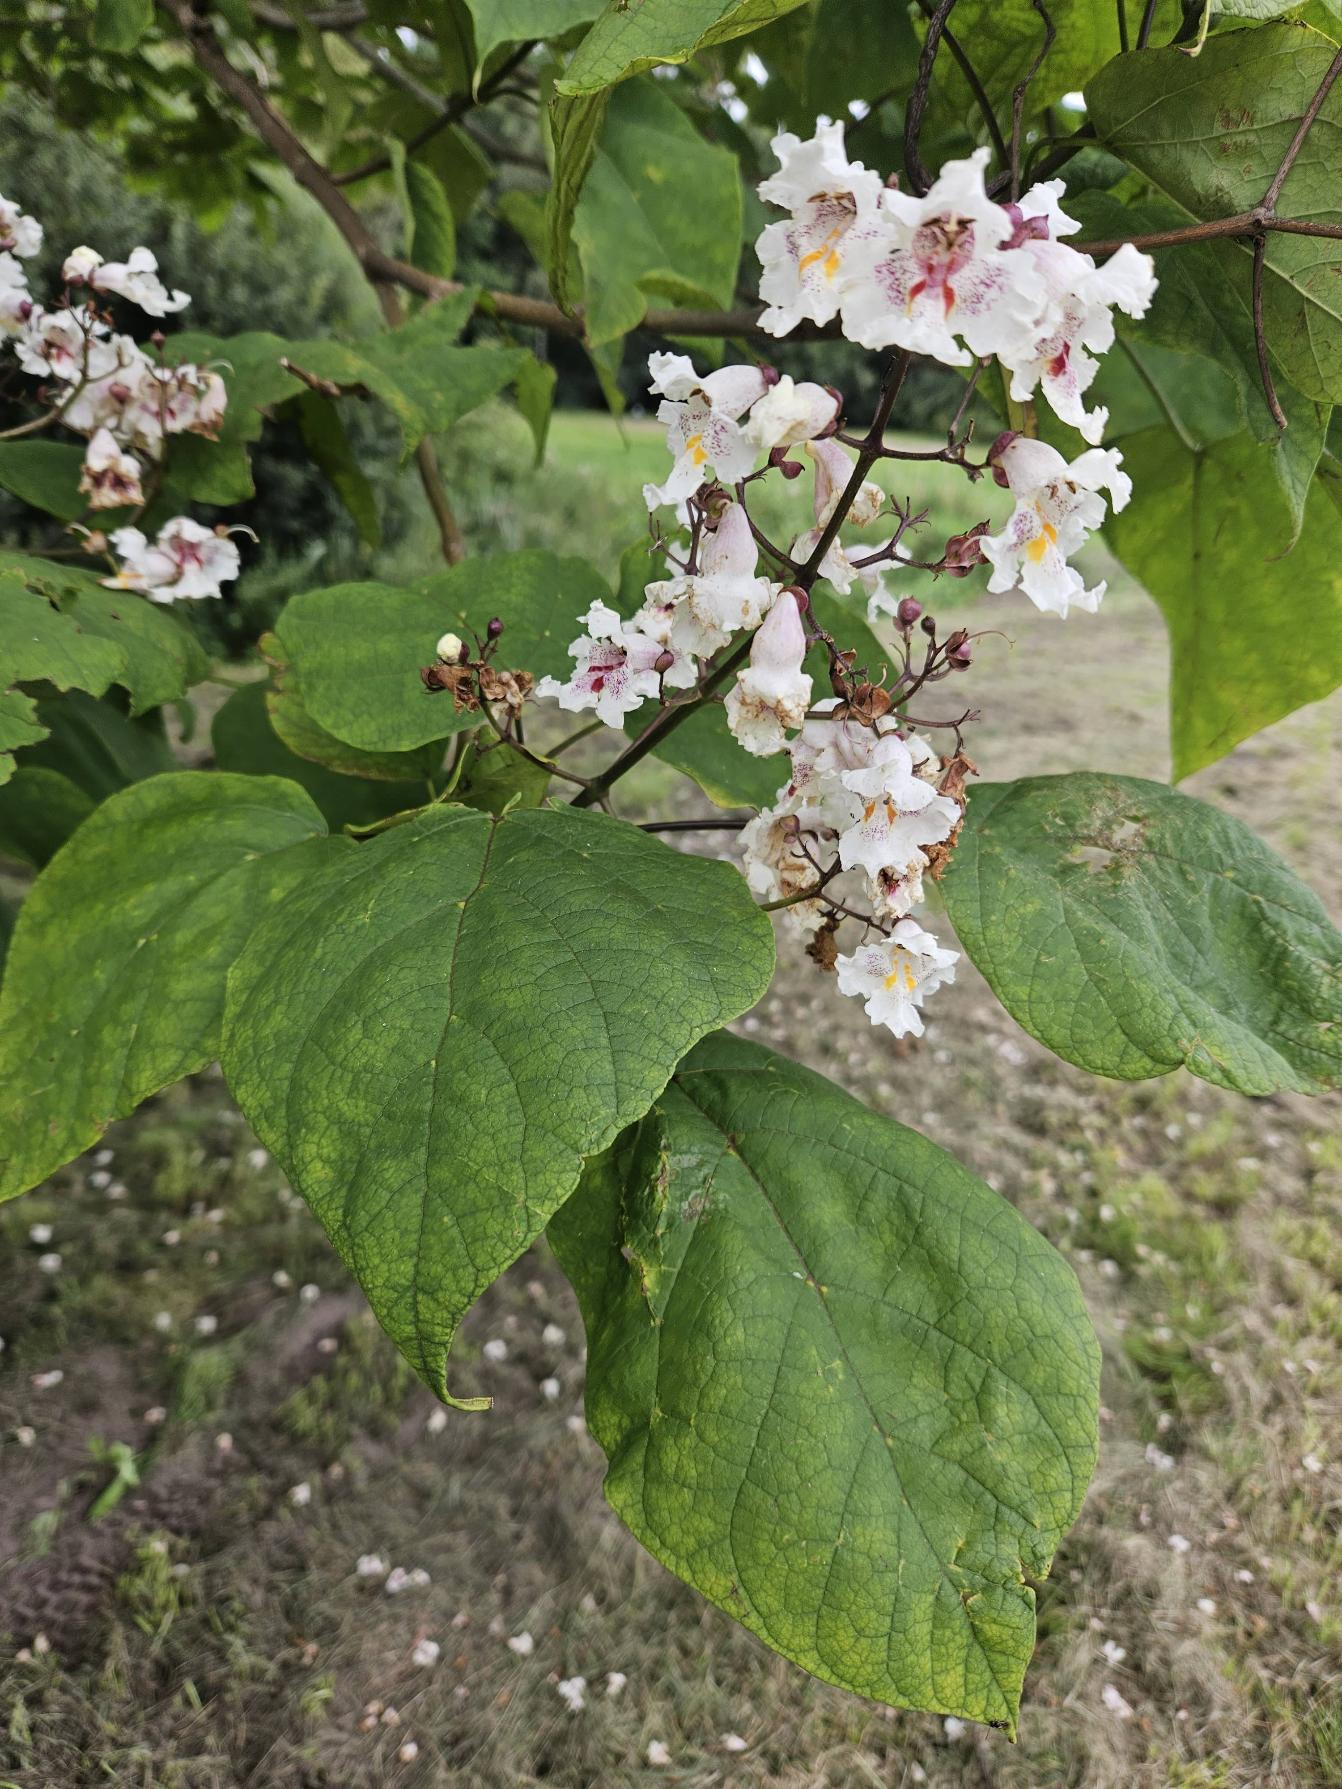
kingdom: Plantae
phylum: Tracheophyta
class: Magnoliopsida
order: Lamiales
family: Bignoniaceae
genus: Catalpa
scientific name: Catalpa
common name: Trompetkroneslægten
